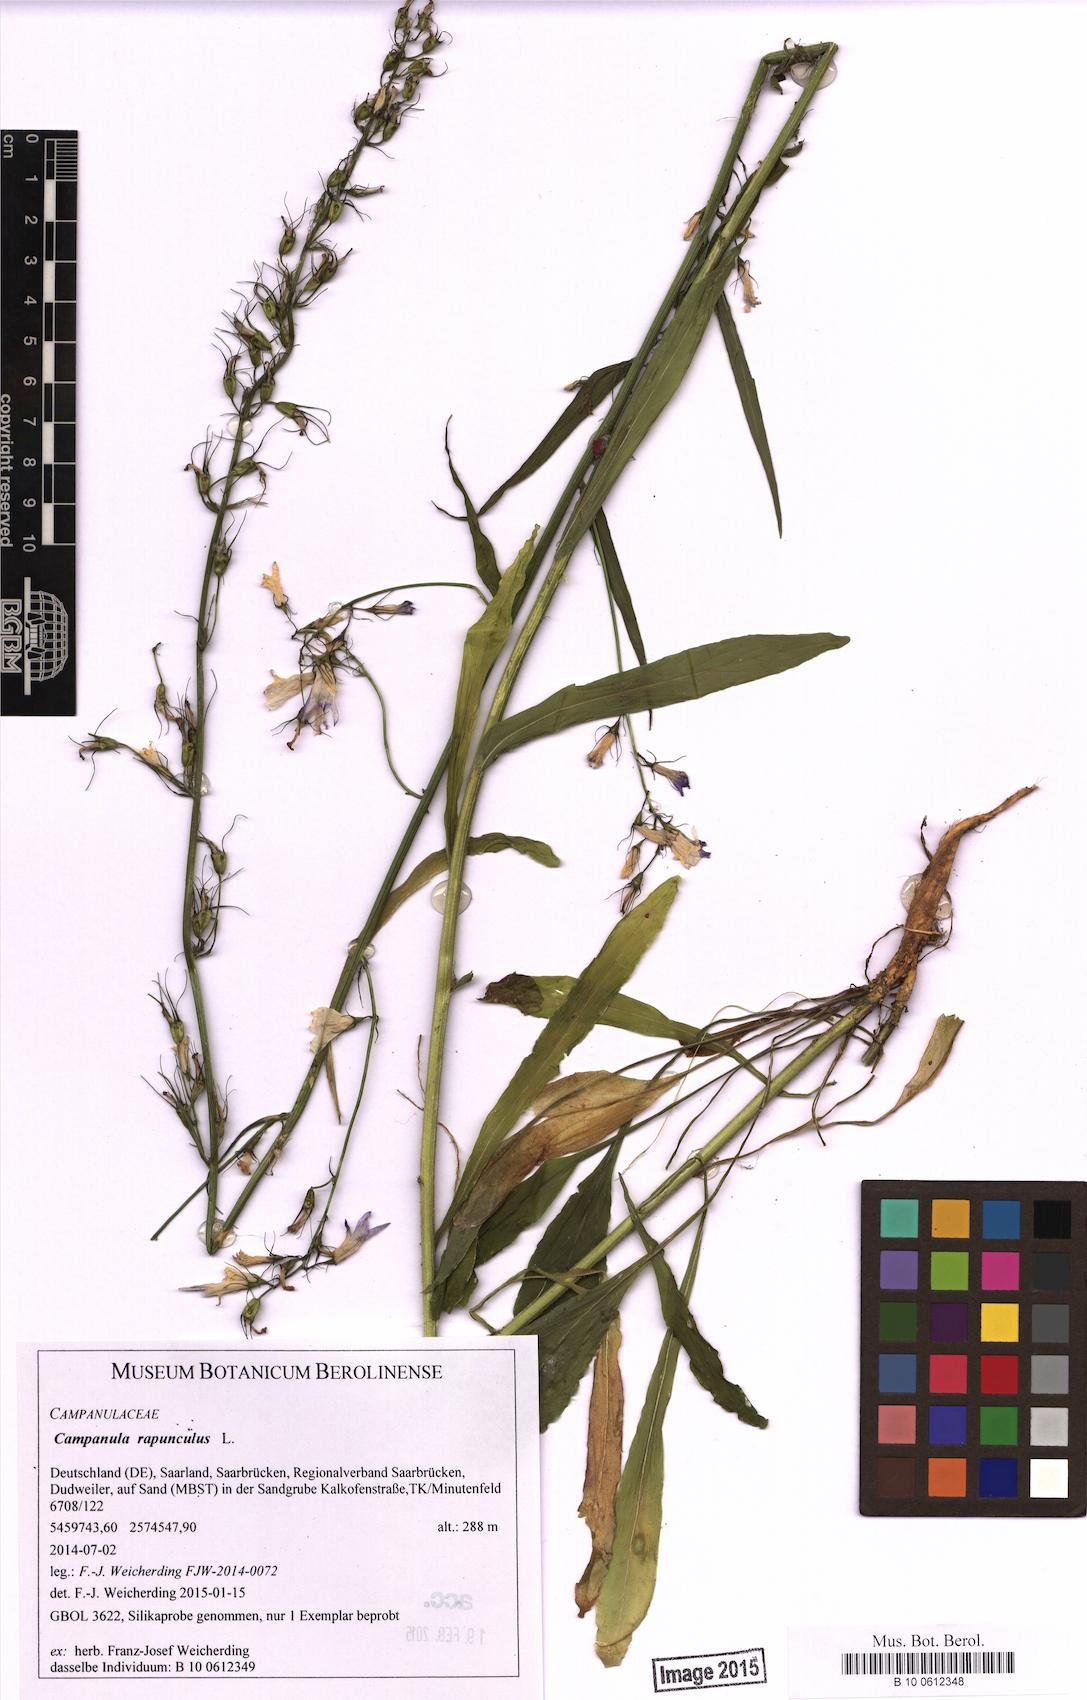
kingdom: Plantae
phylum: Tracheophyta
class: Magnoliopsida
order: Asterales
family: Campanulaceae
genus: Campanula
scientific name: Campanula rapunculus
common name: Rampion bellflower
